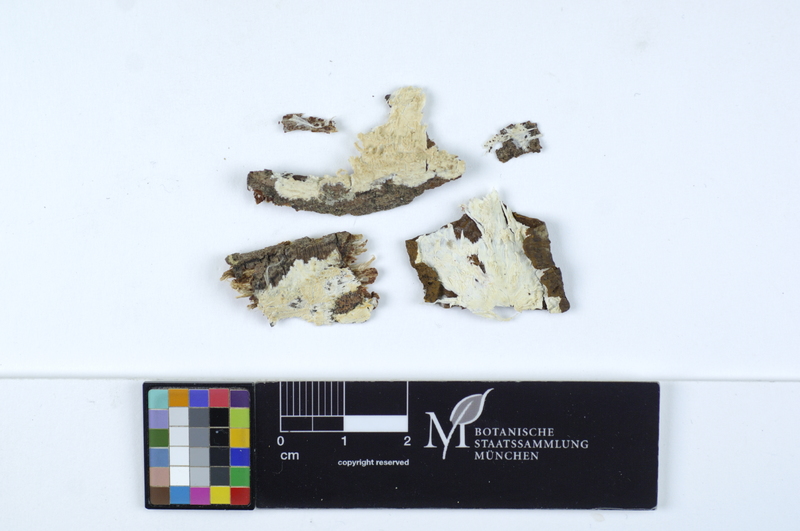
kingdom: Plantae
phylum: Tracheophyta
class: Magnoliopsida
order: Malpighiales
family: Salicaceae
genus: Salix
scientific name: Salix
